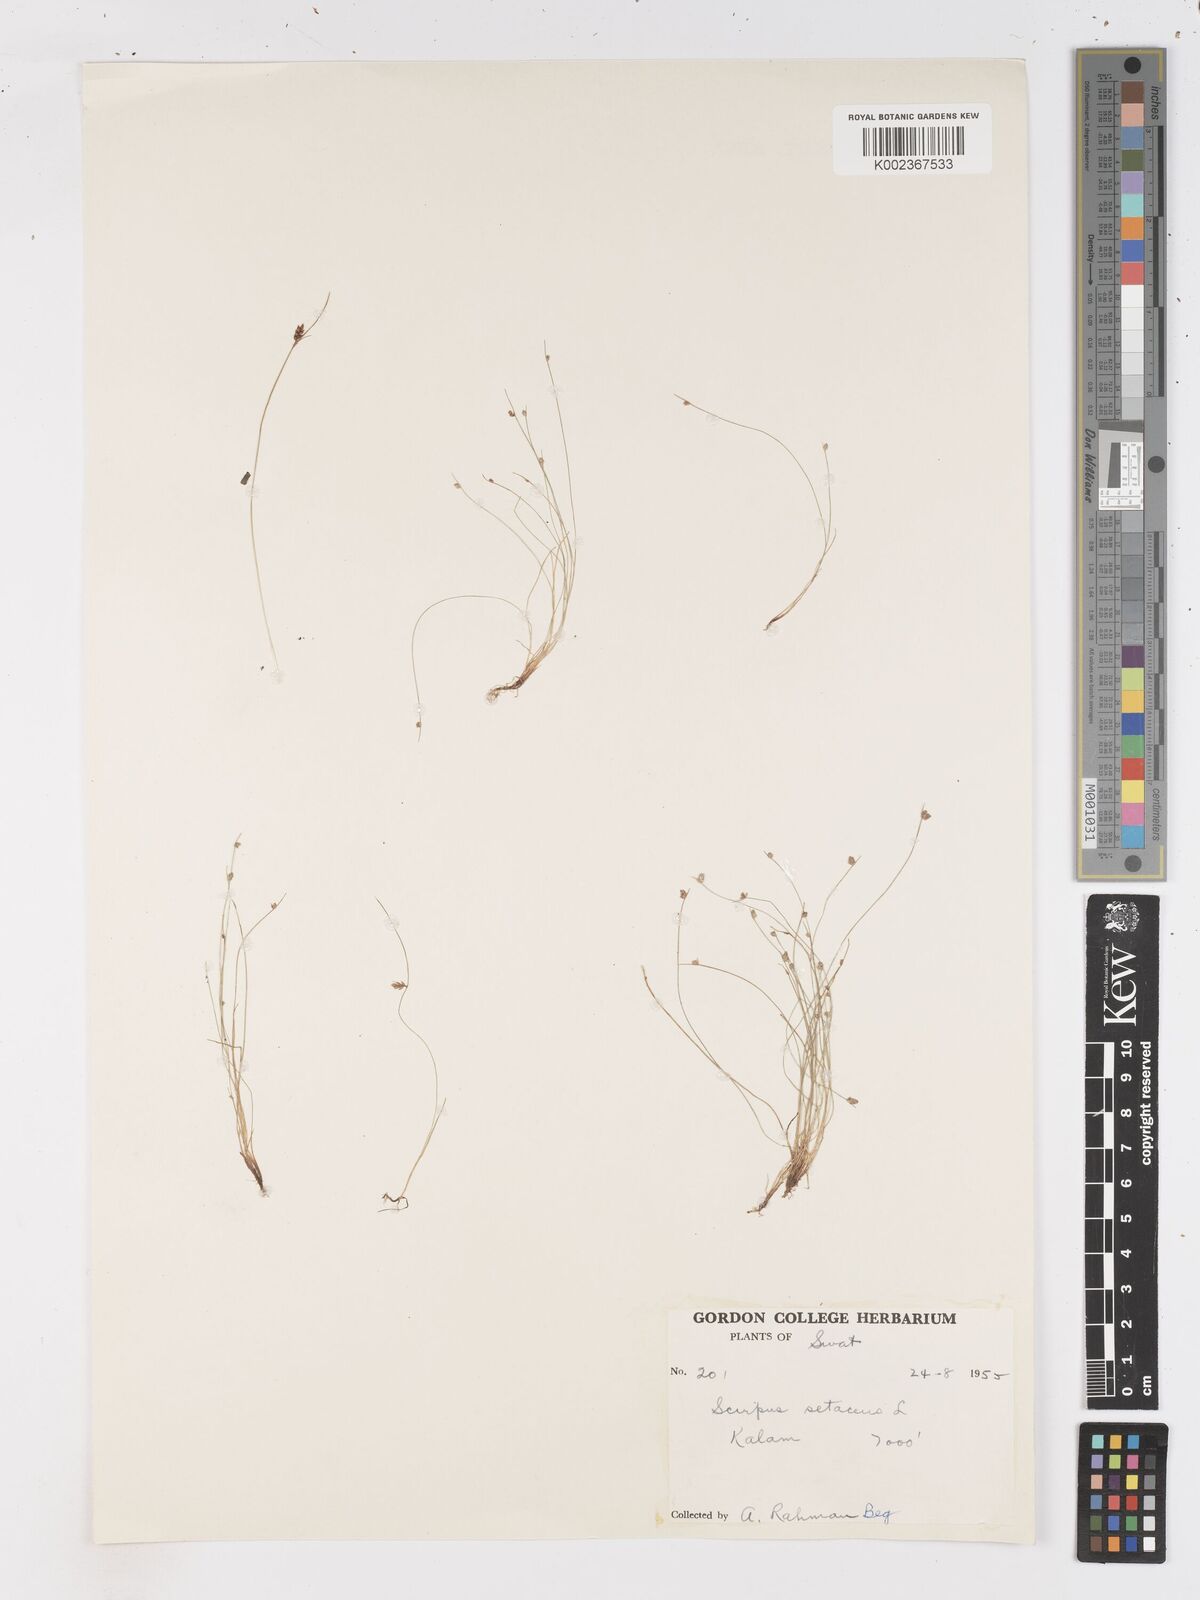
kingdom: Plantae
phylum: Tracheophyta
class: Liliopsida
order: Poales
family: Cyperaceae
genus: Isolepis
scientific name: Isolepis setacea
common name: Bristle club-rush
